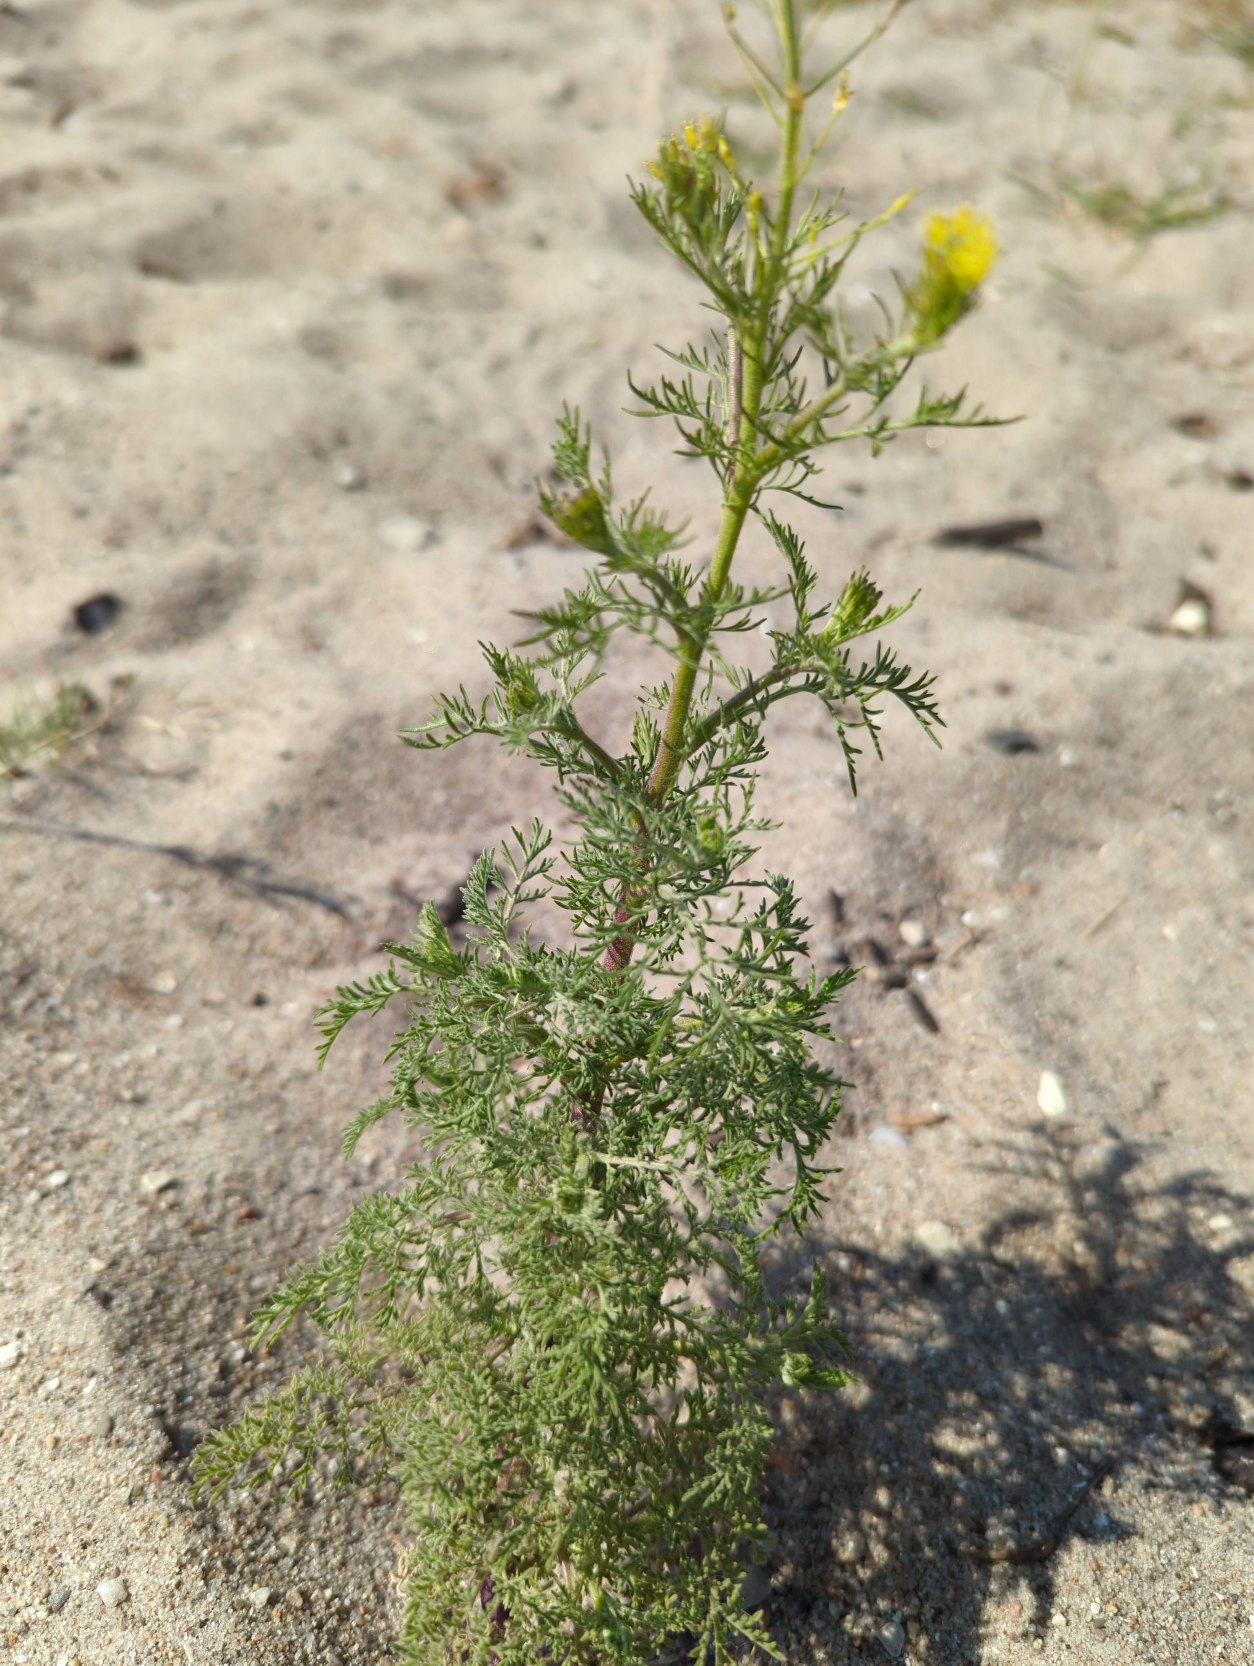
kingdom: Plantae
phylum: Tracheophyta
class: Magnoliopsida
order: Brassicales
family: Brassicaceae
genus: Descurainia
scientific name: Descurainia sophia
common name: Finbladet vejsennep
